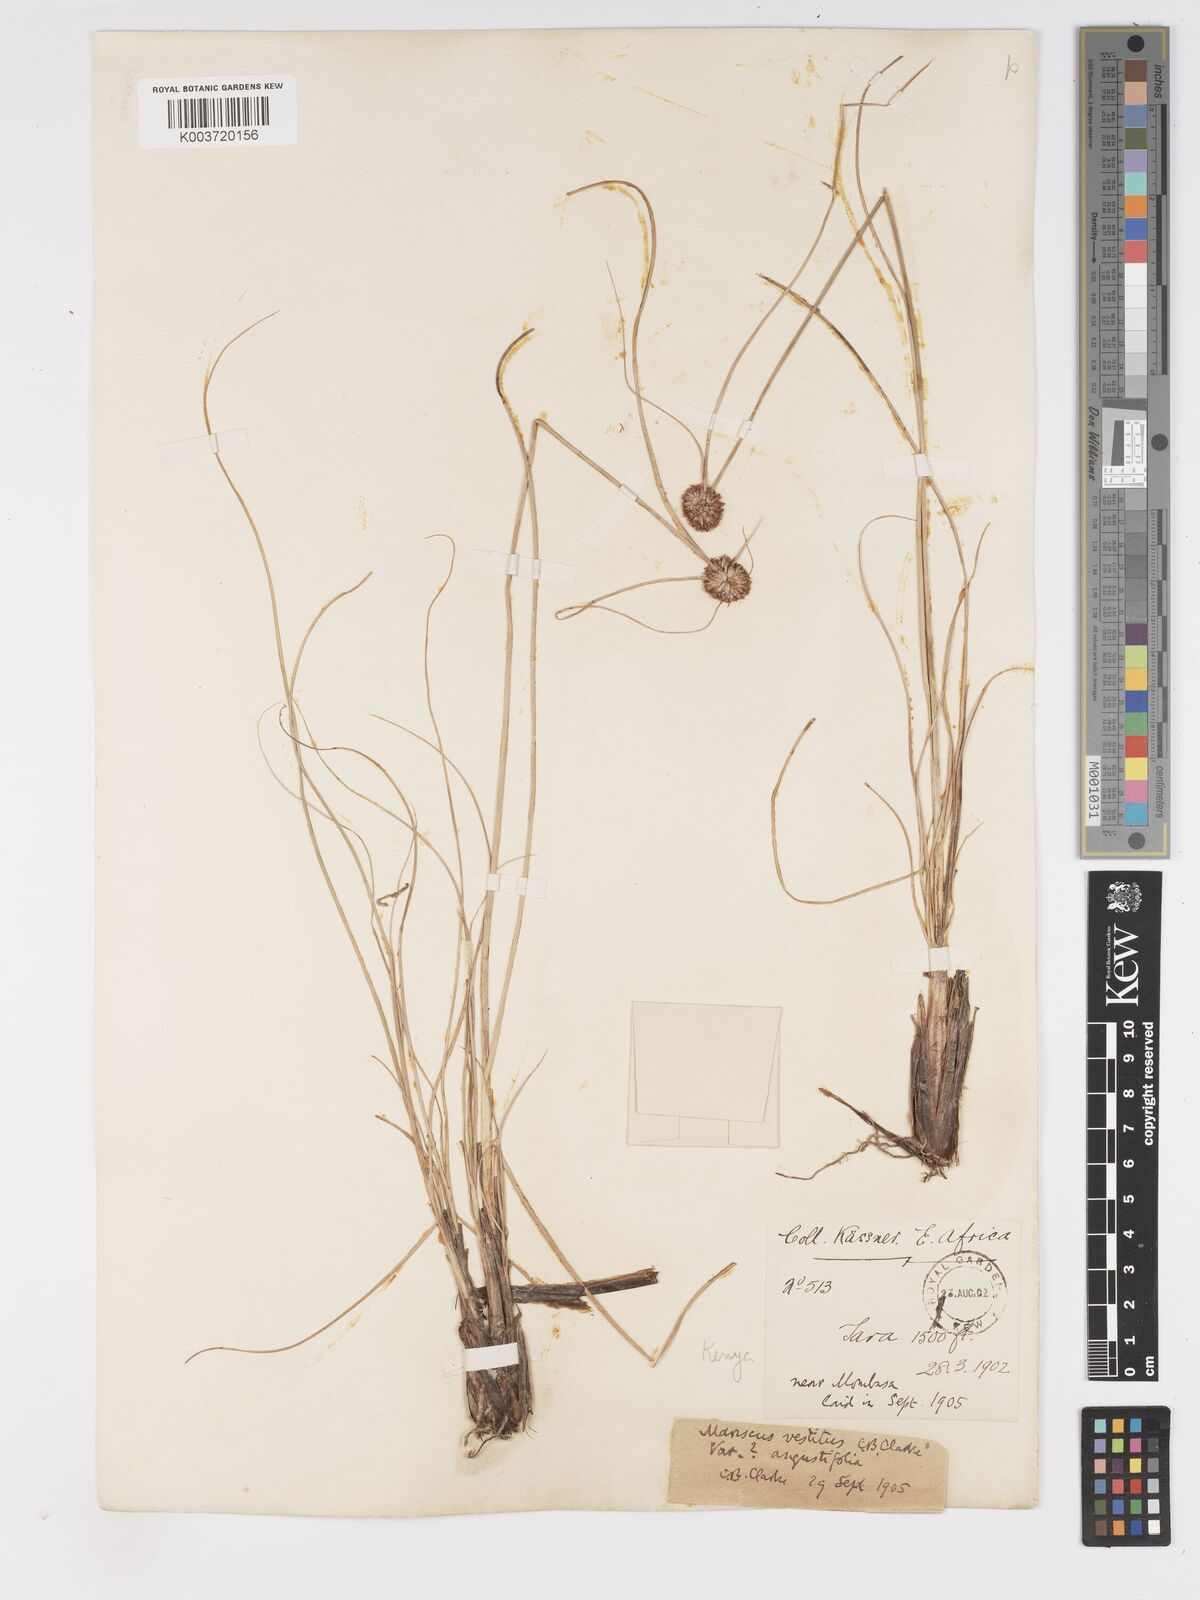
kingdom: Plantae
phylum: Tracheophyta
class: Liliopsida
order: Poales
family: Cyperaceae
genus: Cyperus
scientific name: Cyperus vestitus
